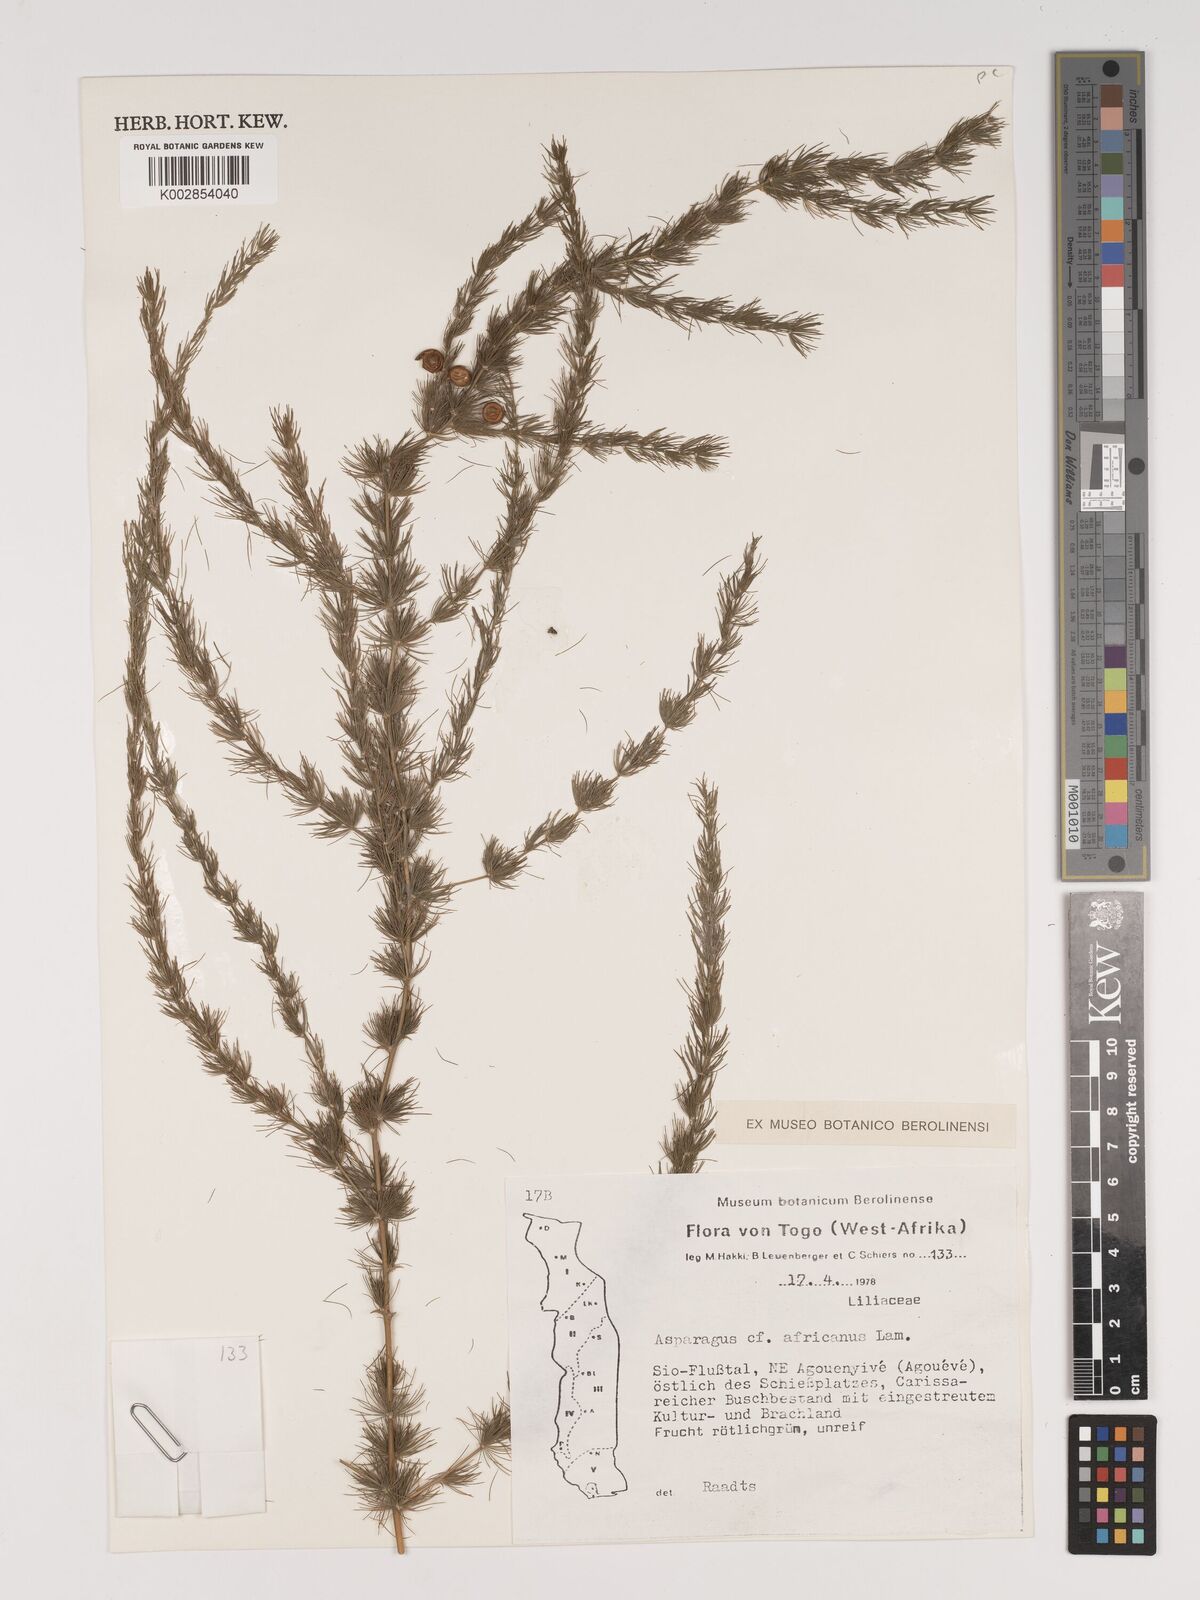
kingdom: Plantae
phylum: Tracheophyta
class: Liliopsida
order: Asparagales
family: Asparagaceae
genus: Asparagus
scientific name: Asparagus africanus
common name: Asparagus-fern
